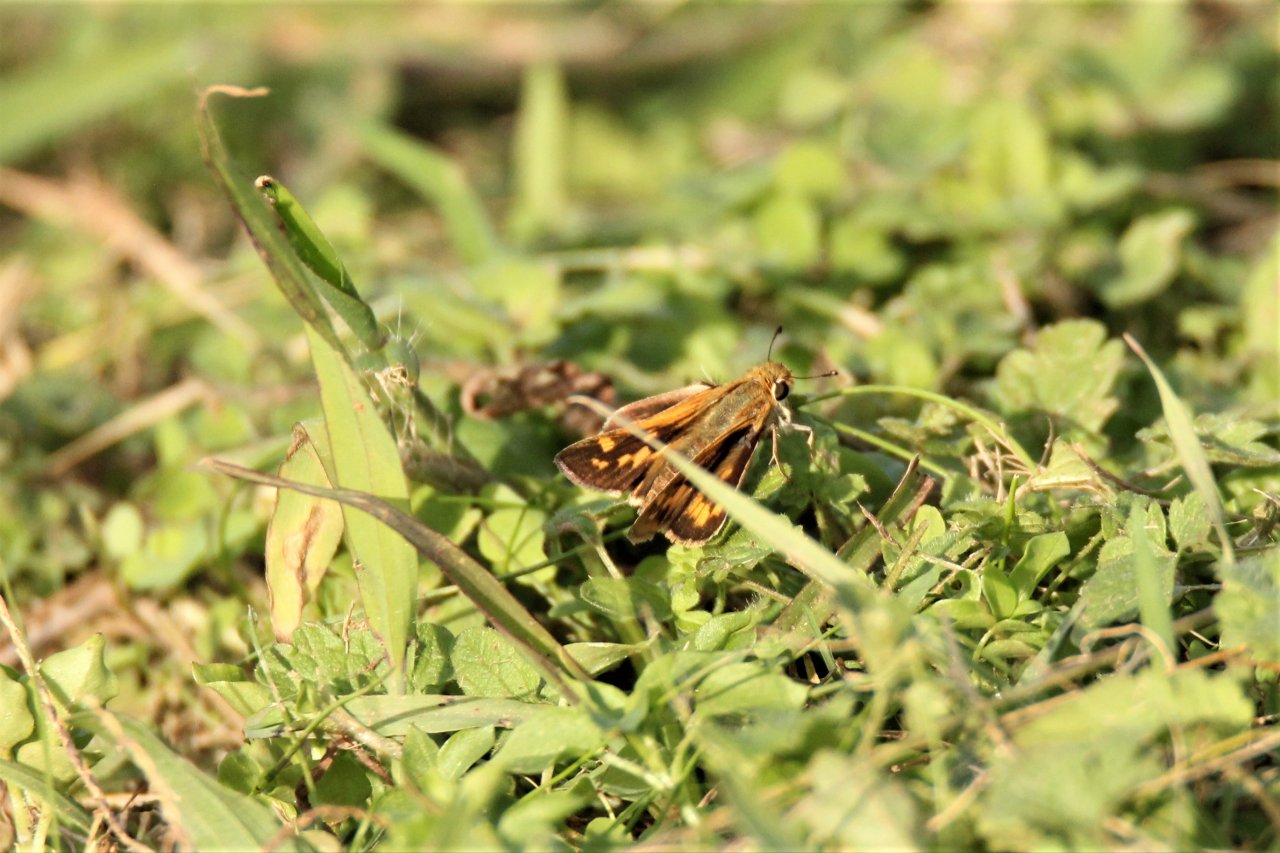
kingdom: Animalia
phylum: Arthropoda
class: Insecta
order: Lepidoptera
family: Hesperiidae
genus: Hylephila
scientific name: Hylephila phyleus
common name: Fiery Skipper
